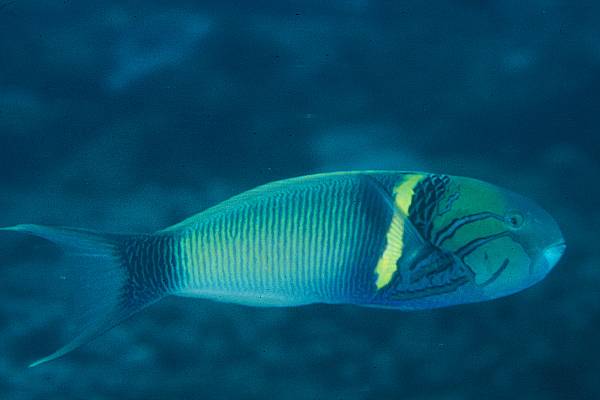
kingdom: Animalia
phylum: Chordata
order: Perciformes
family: Labridae
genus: Thalassoma
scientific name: Thalassoma hebraicum
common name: Goldbar wrasse
